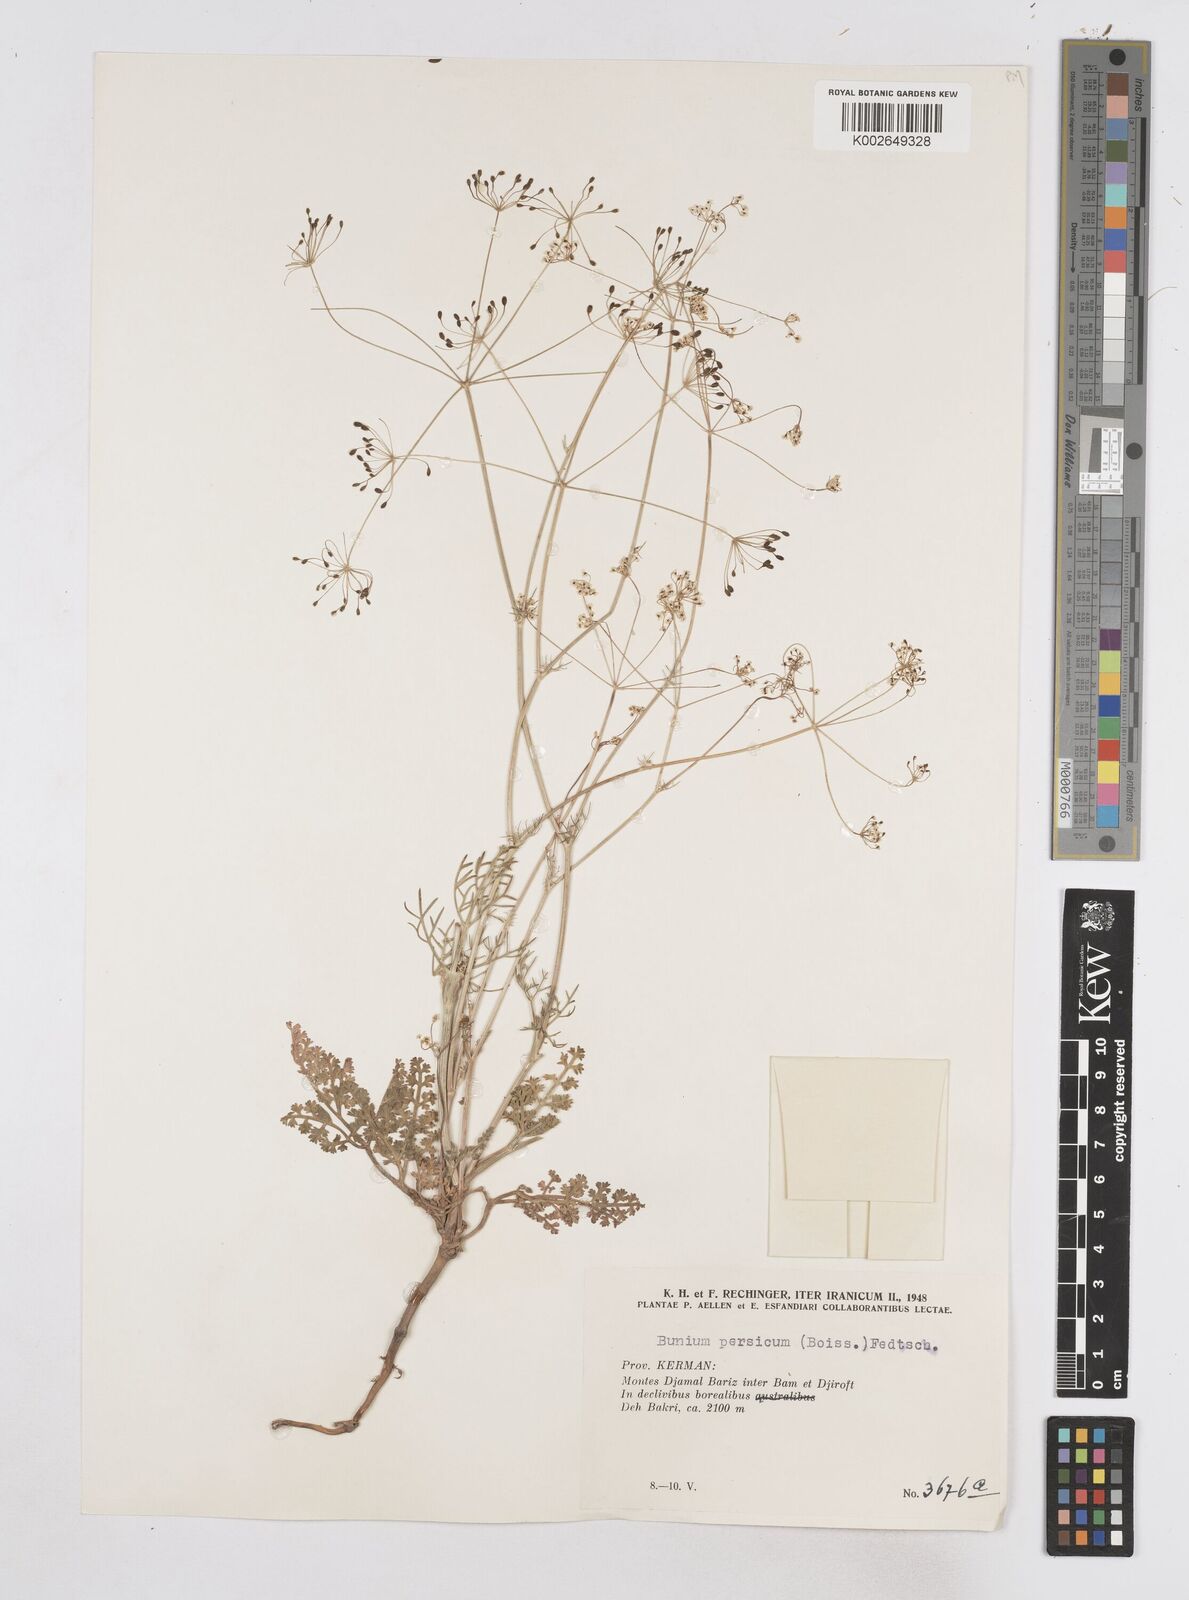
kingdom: Plantae
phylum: Tracheophyta
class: Magnoliopsida
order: Apiales
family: Apiaceae
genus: Elwendia
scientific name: Elwendia persica
